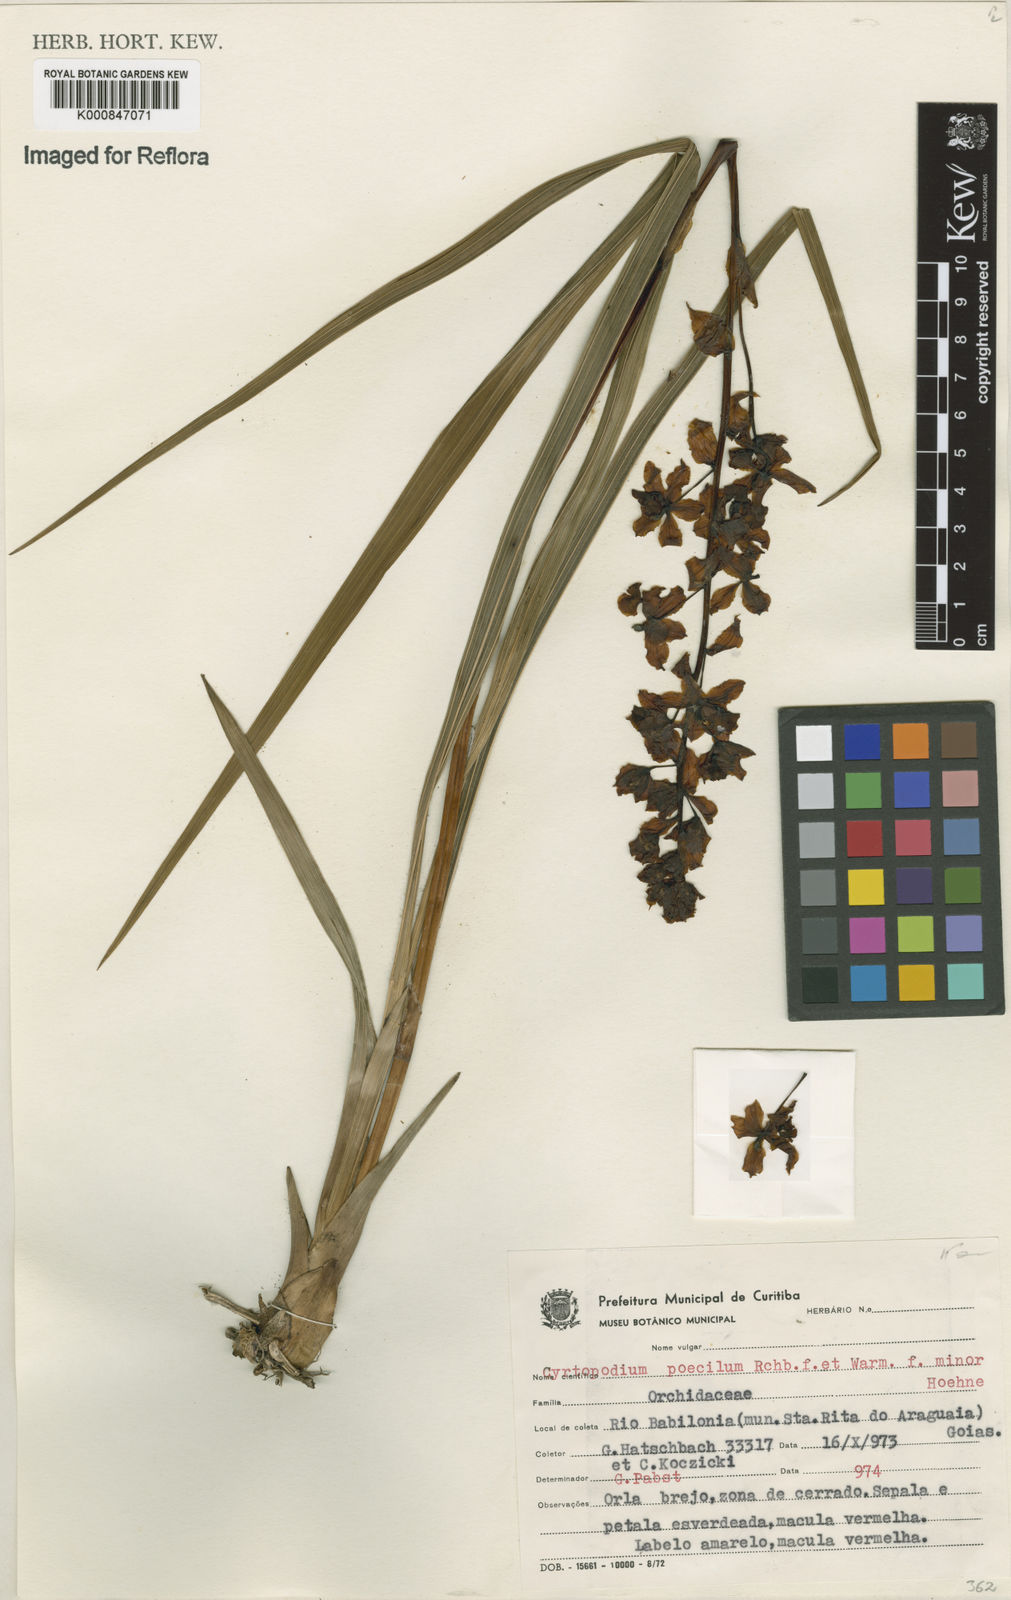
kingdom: Plantae
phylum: Tracheophyta
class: Liliopsida
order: Asparagales
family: Orchidaceae
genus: Cyrtopodium
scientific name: Cyrtopodium poecilum
